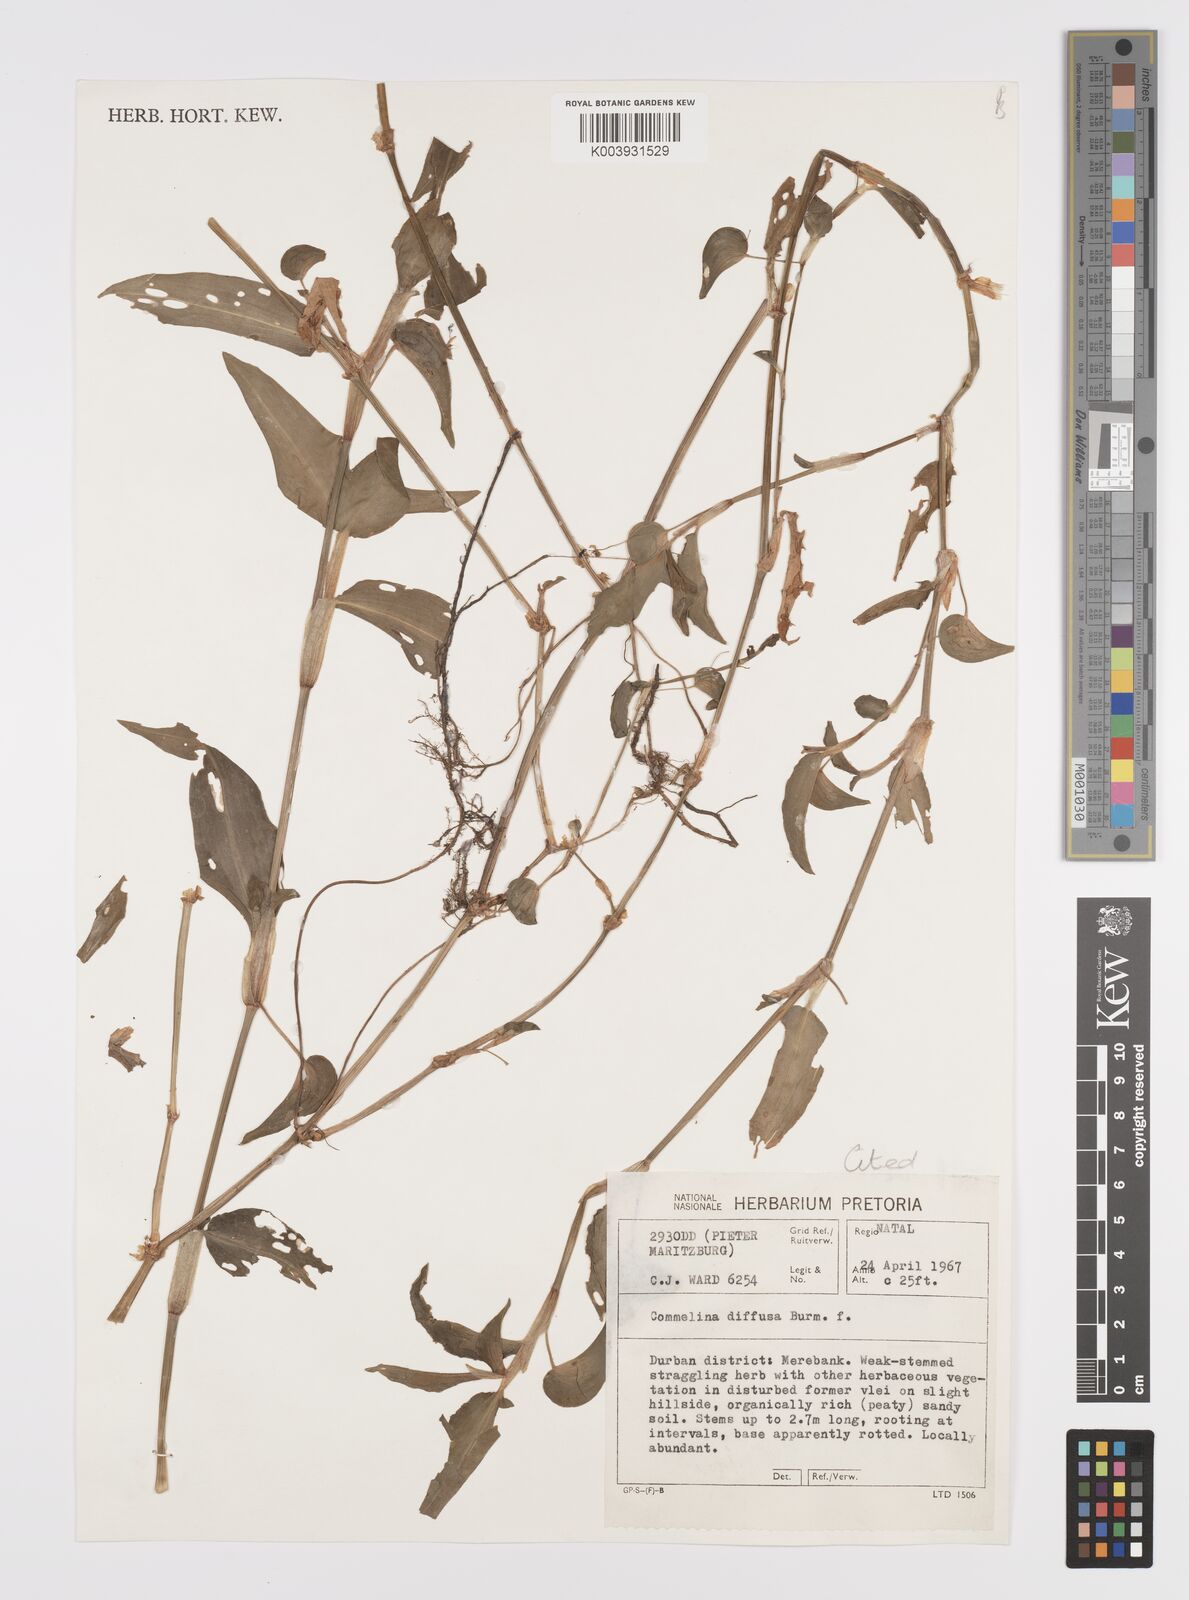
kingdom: Plantae
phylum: Tracheophyta
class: Liliopsida
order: Commelinales
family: Commelinaceae
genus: Commelina
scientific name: Commelina diffusa
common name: Climbing dayflower
